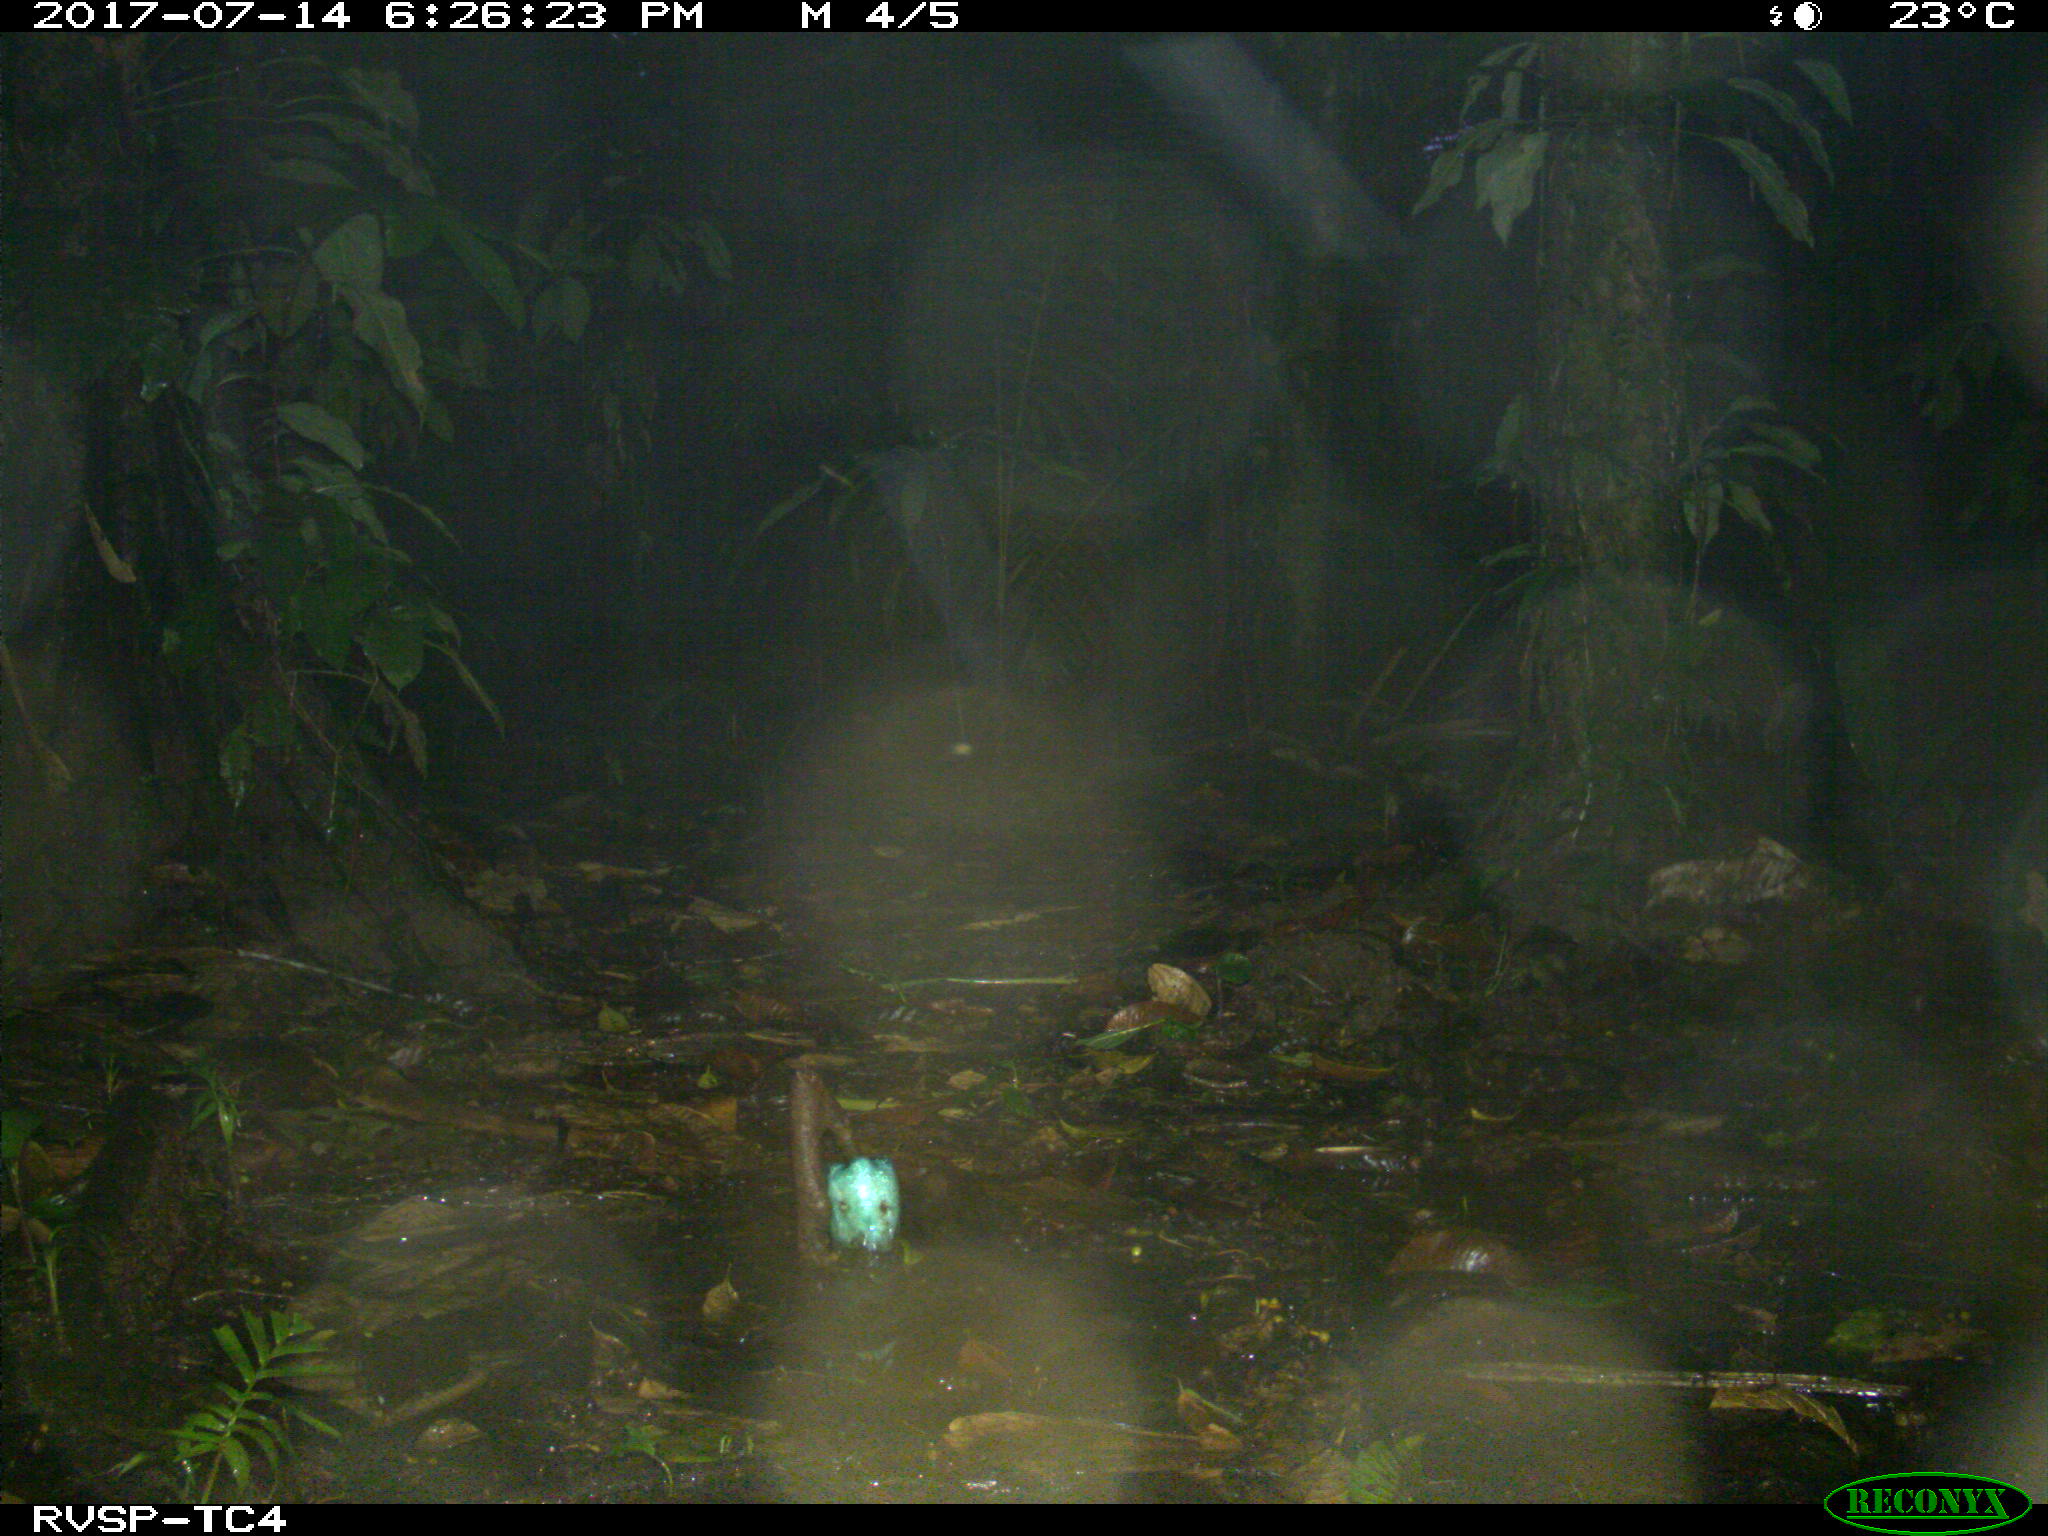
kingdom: Animalia
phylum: Chordata
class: Mammalia
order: Rodentia
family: Echimyidae
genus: Proechimys
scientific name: Proechimys
